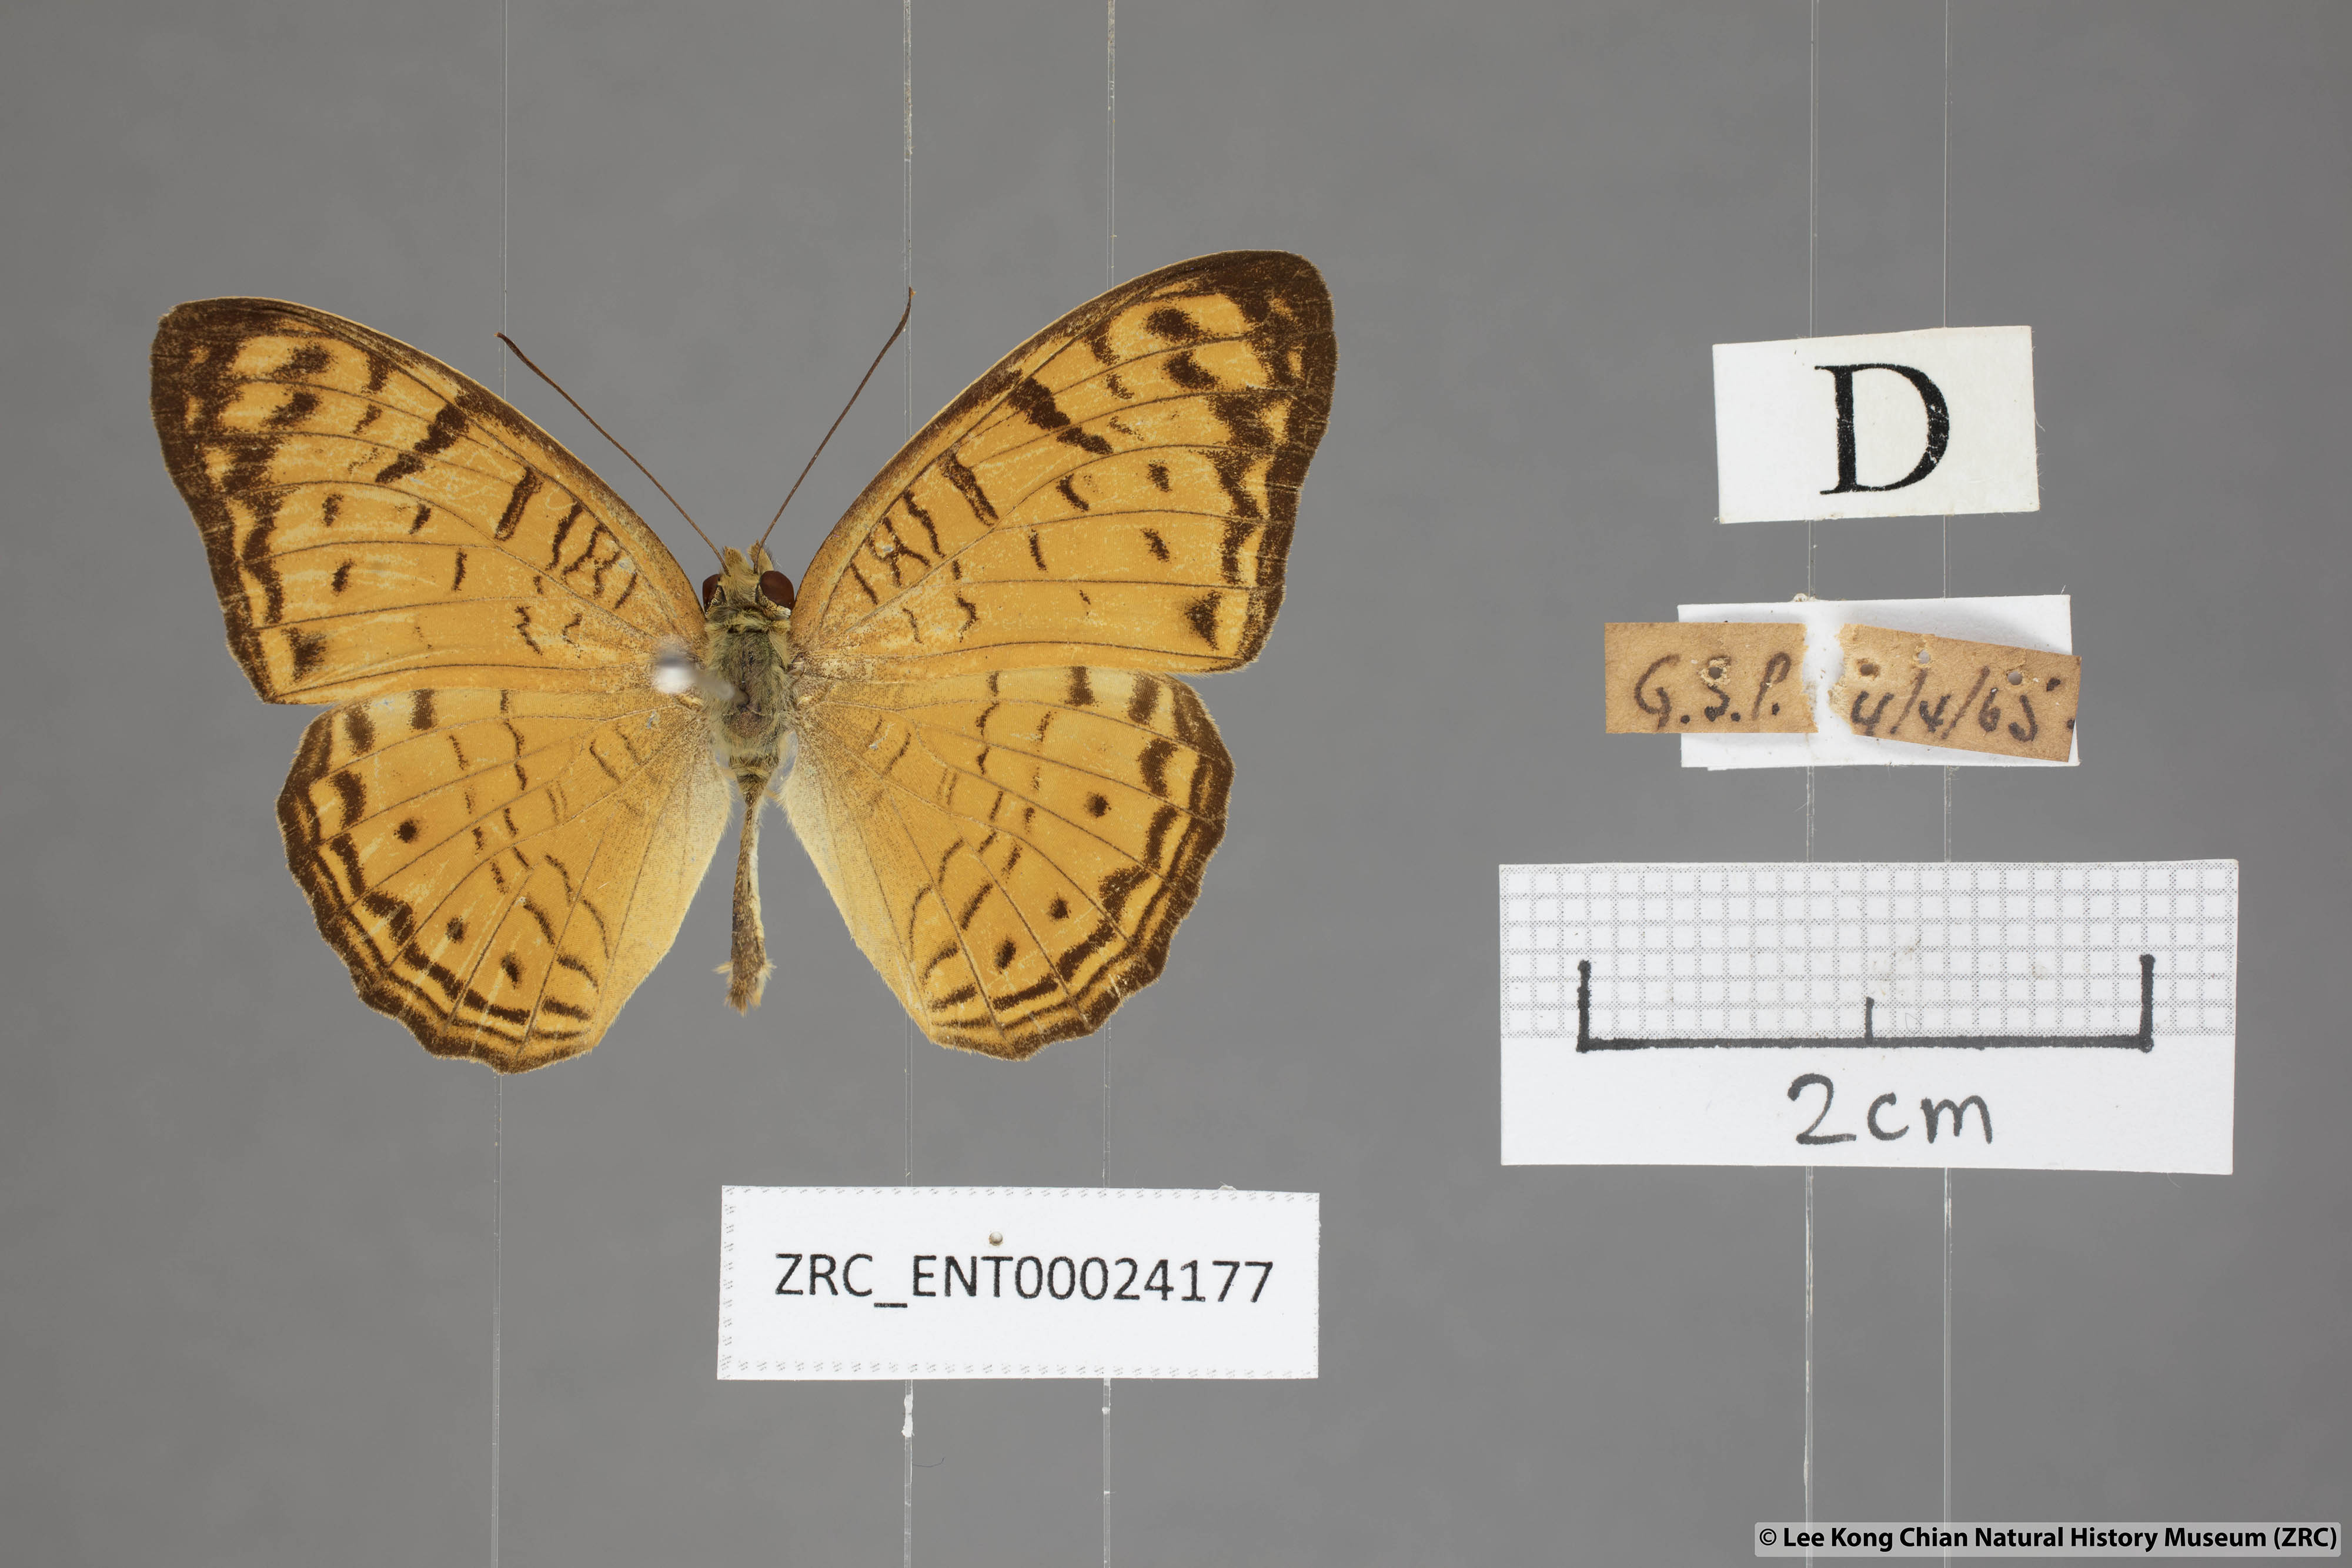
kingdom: Animalia
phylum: Arthropoda
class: Insecta
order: Lepidoptera
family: Nymphalidae
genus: Phalanta
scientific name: Phalanta alcippe
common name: Small leopard
